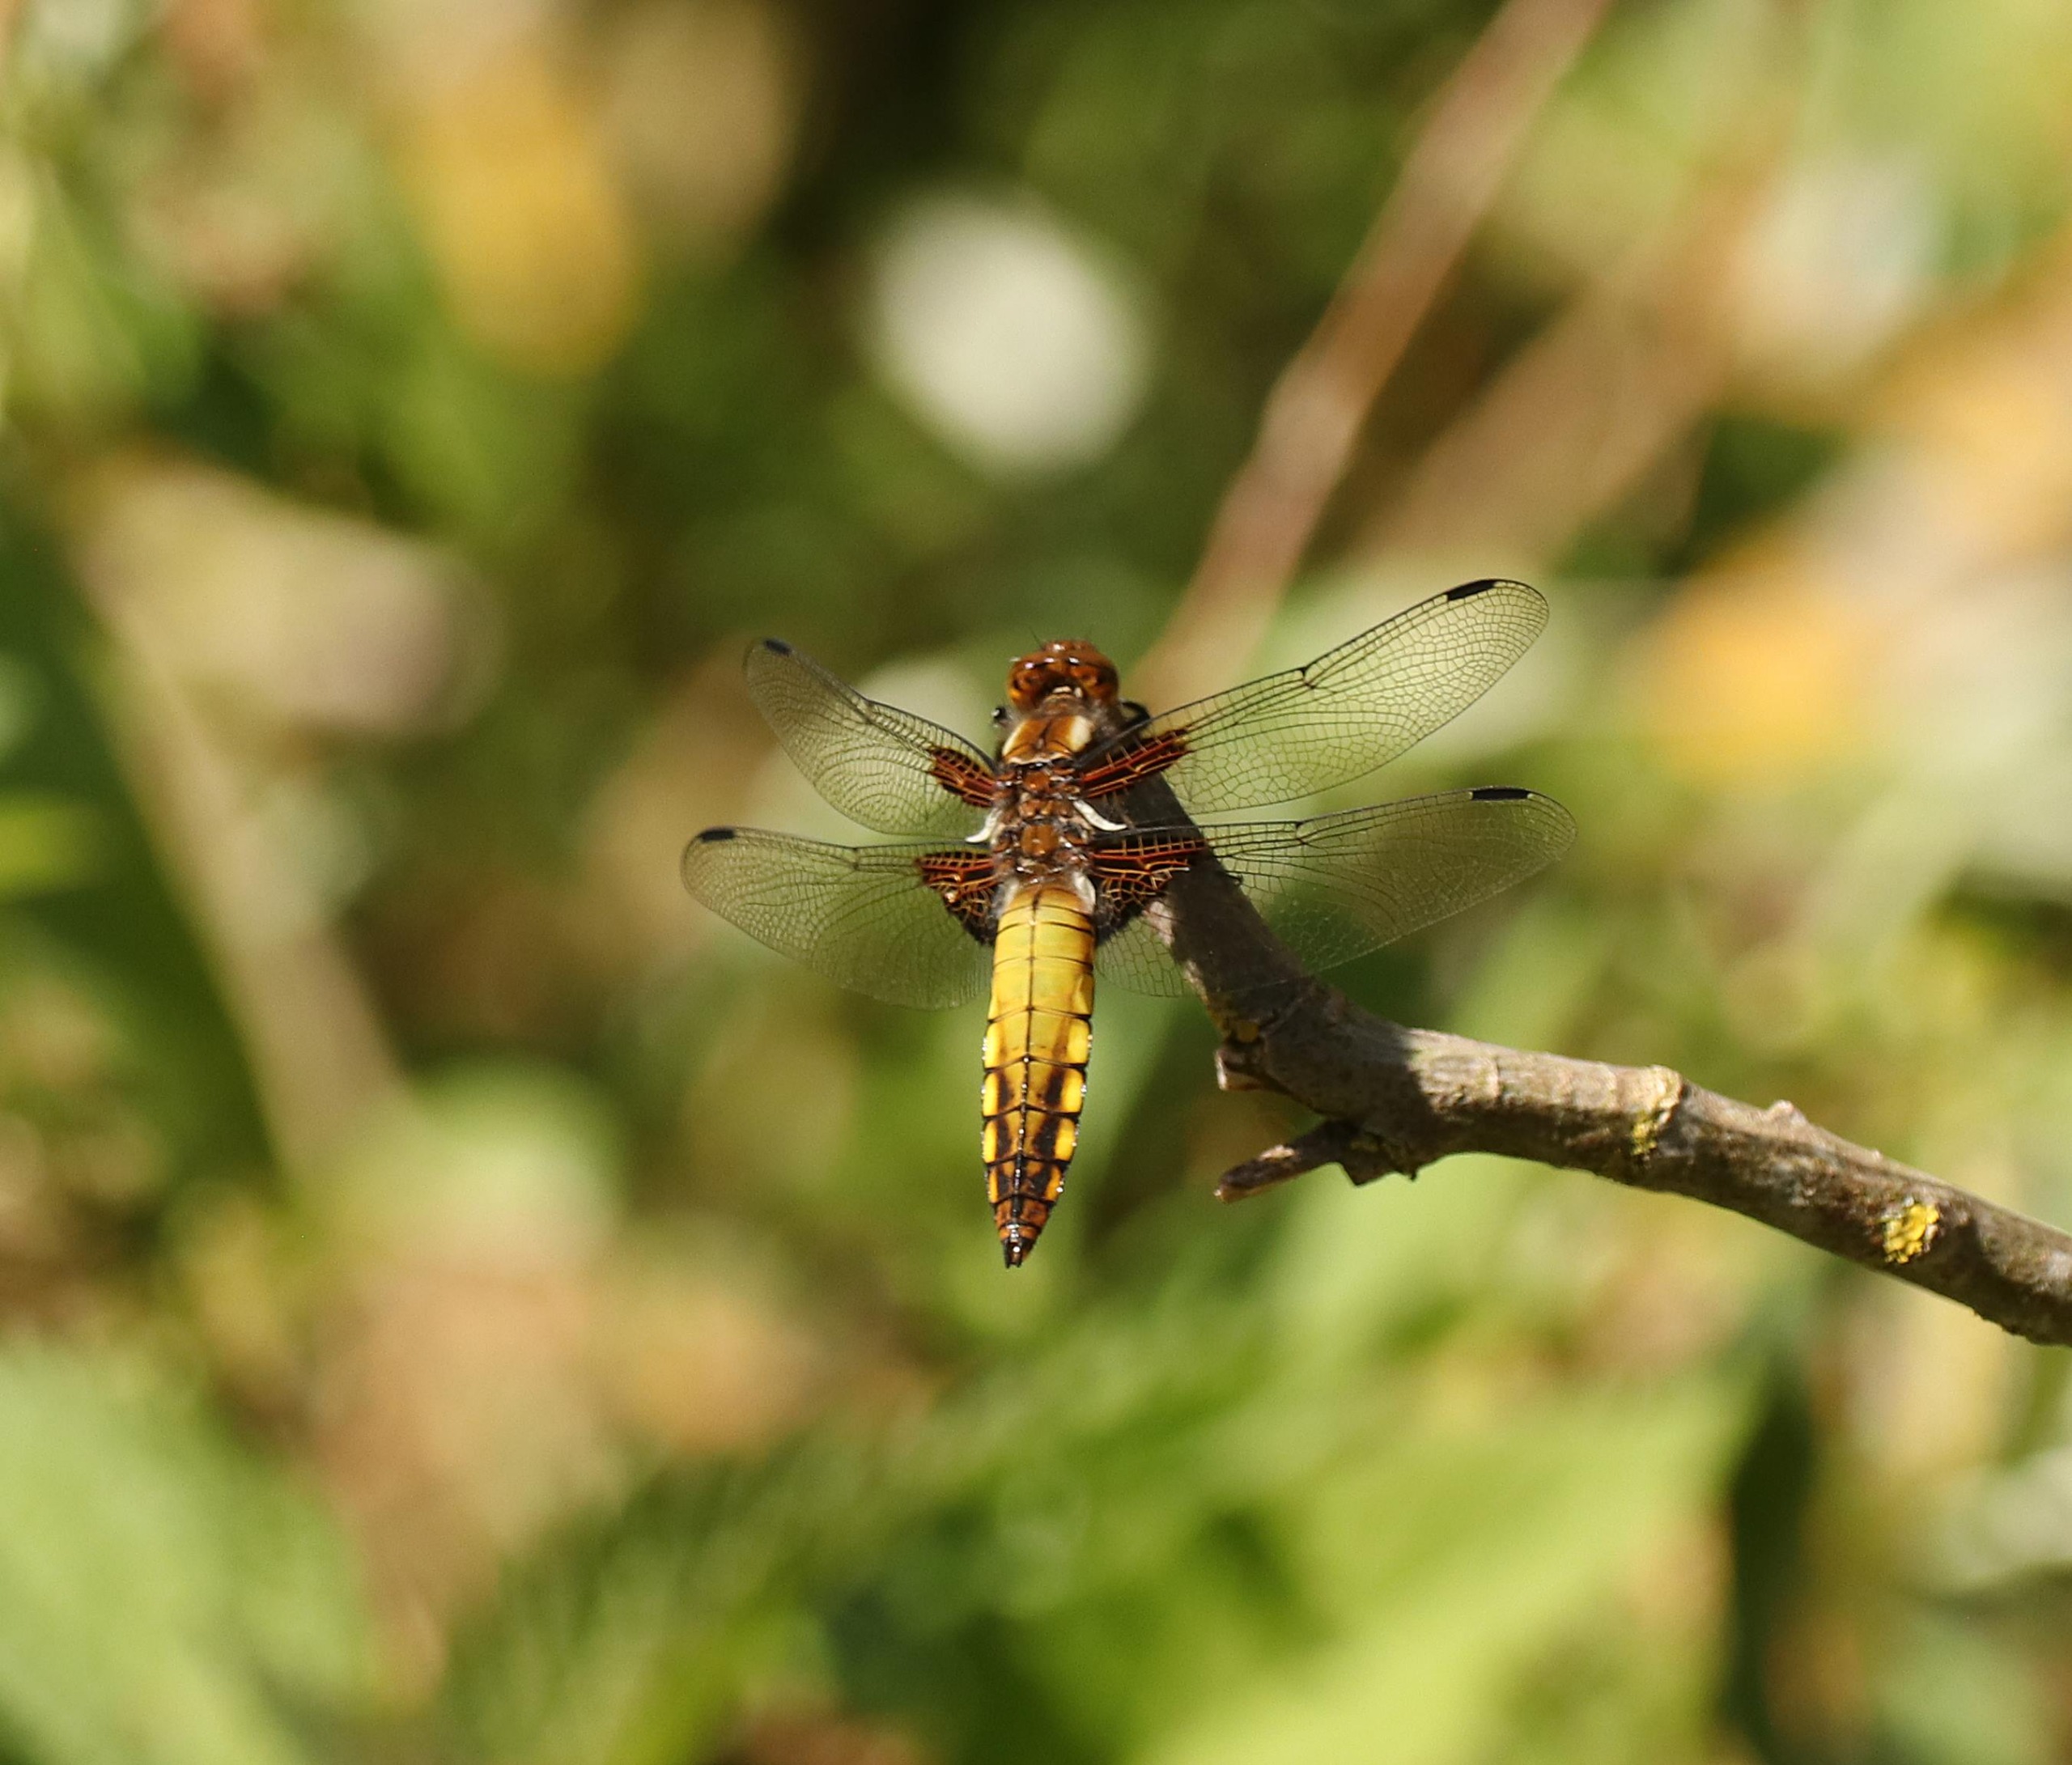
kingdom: Animalia
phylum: Arthropoda
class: Insecta
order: Odonata
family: Libellulidae
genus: Libellula
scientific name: Libellula depressa
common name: Blå libel
